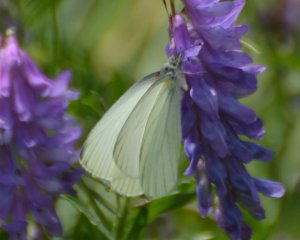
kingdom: Animalia
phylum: Arthropoda
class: Insecta
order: Lepidoptera
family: Pieridae
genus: Pieris
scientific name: Pieris oleracea
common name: Mustard White
